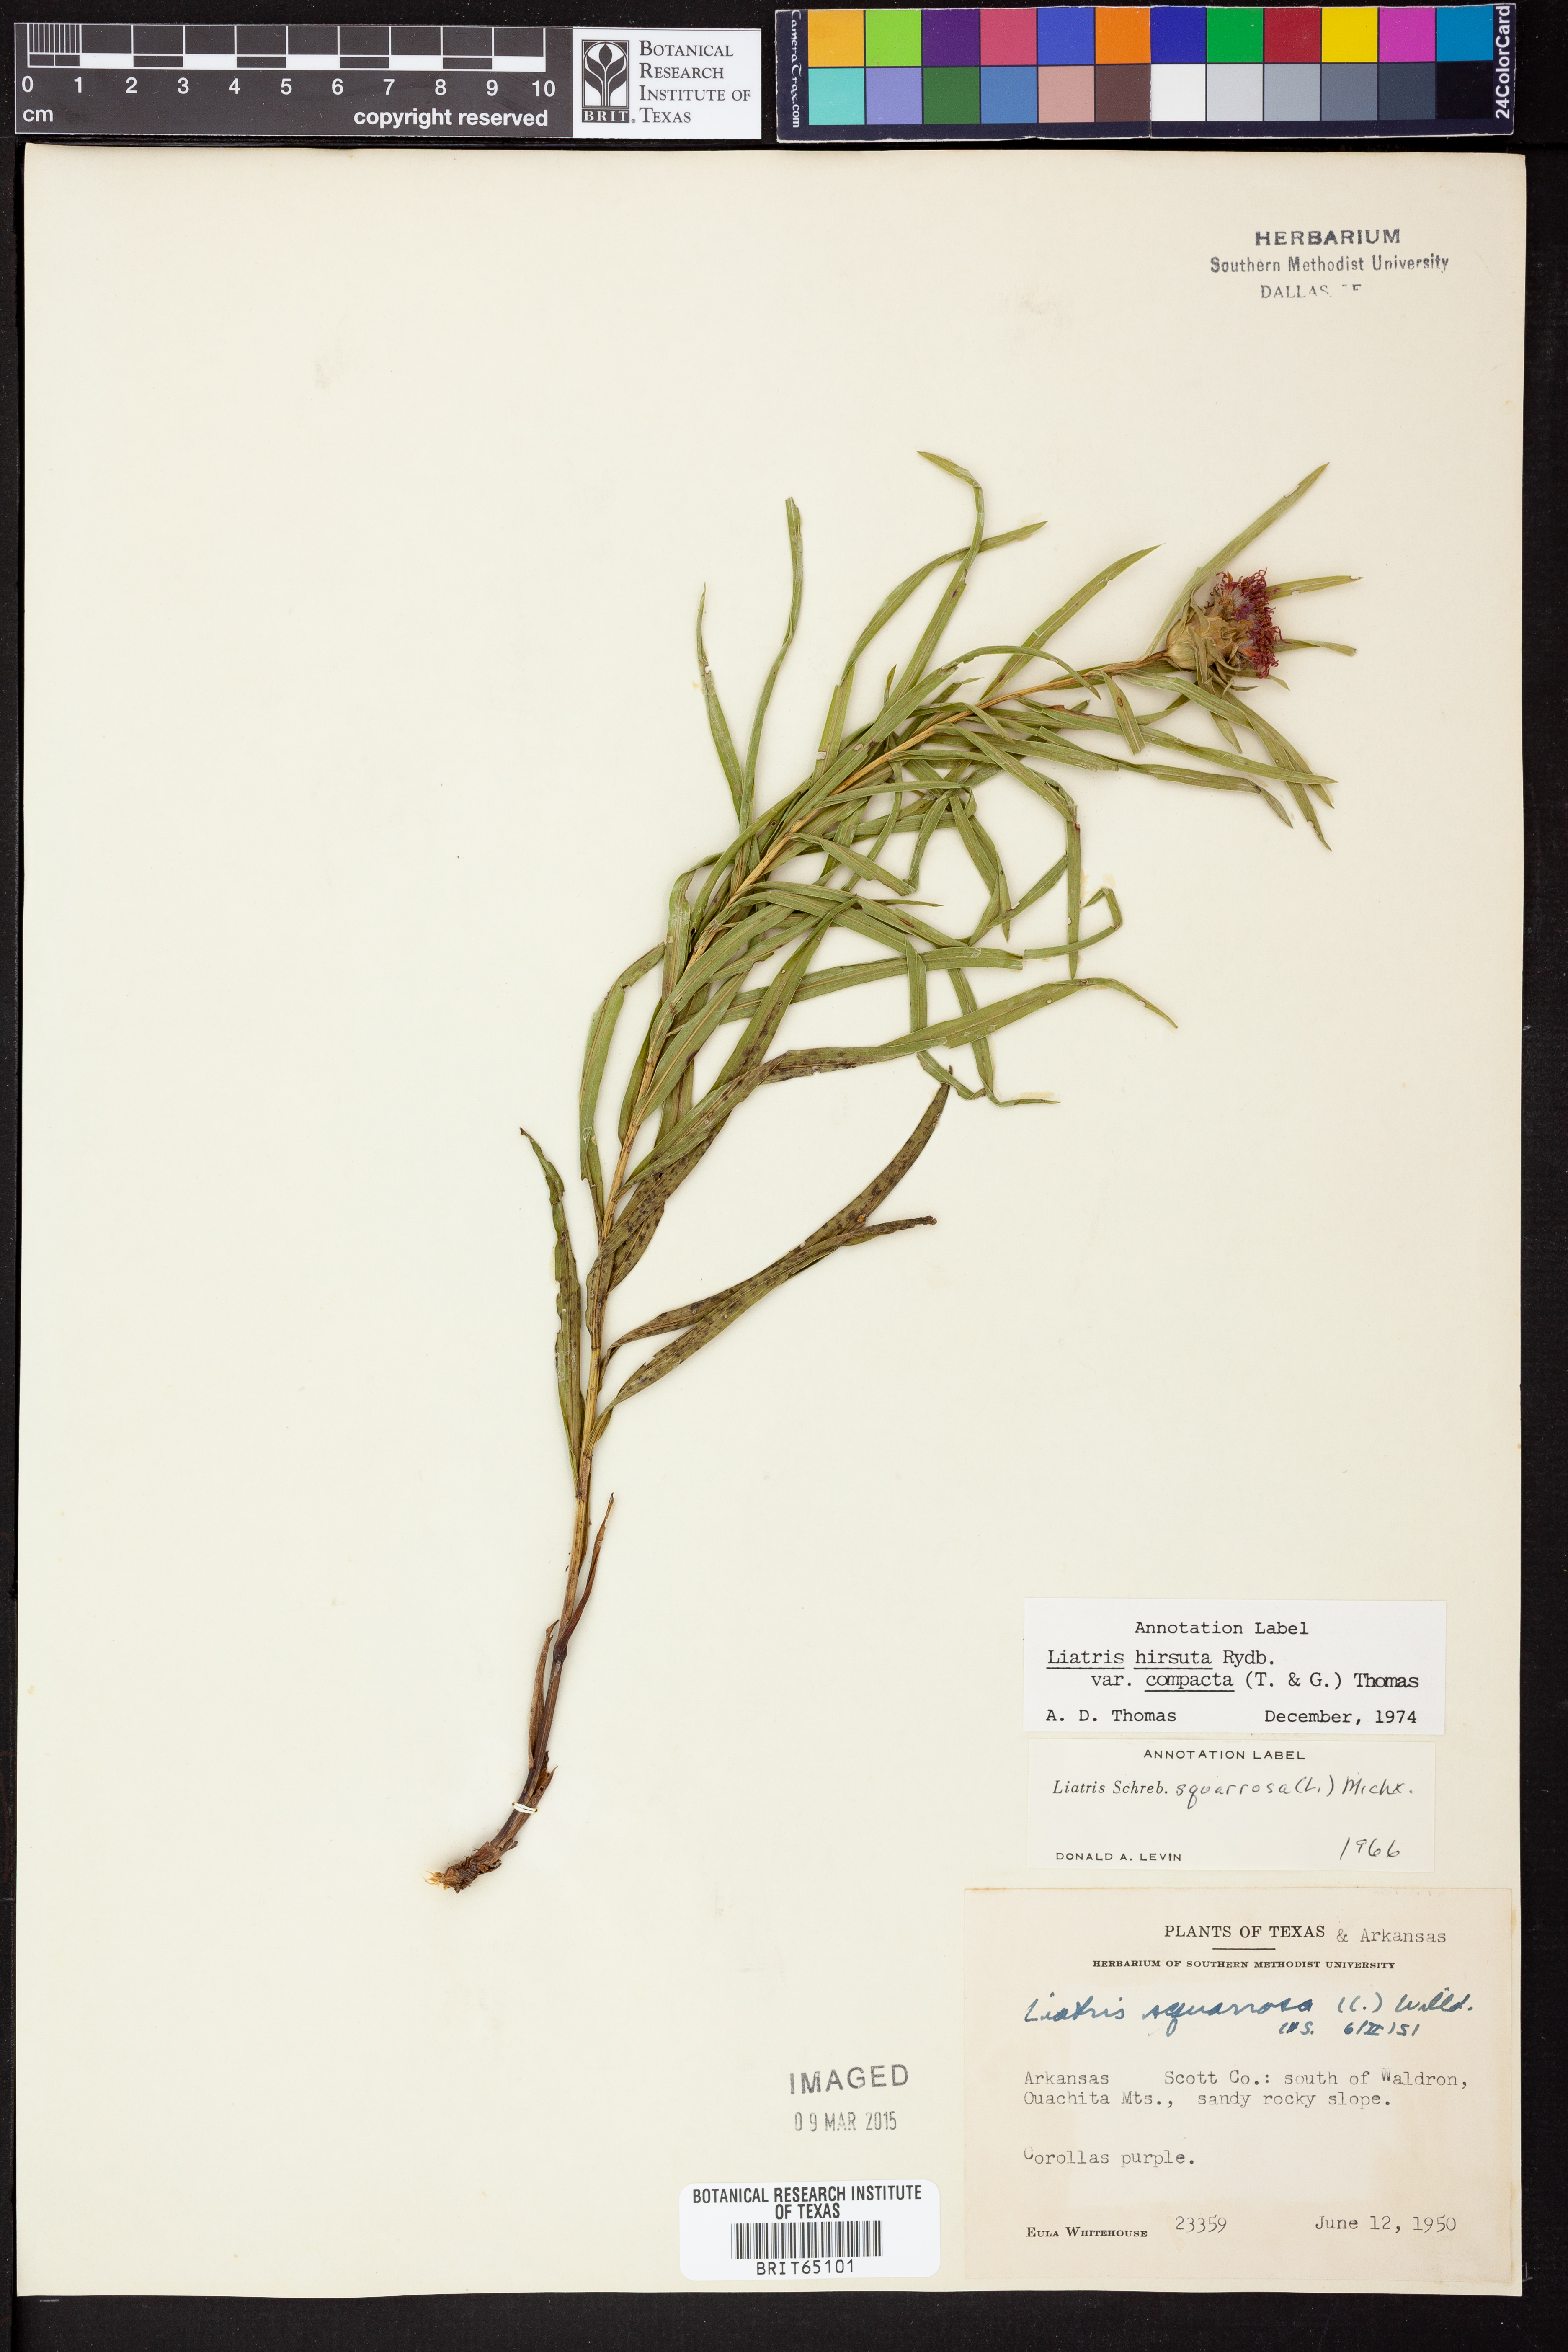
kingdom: Plantae
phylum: Tracheophyta
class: Magnoliopsida
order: Asterales
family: Asteraceae
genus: Liatris
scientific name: Liatris compacta
